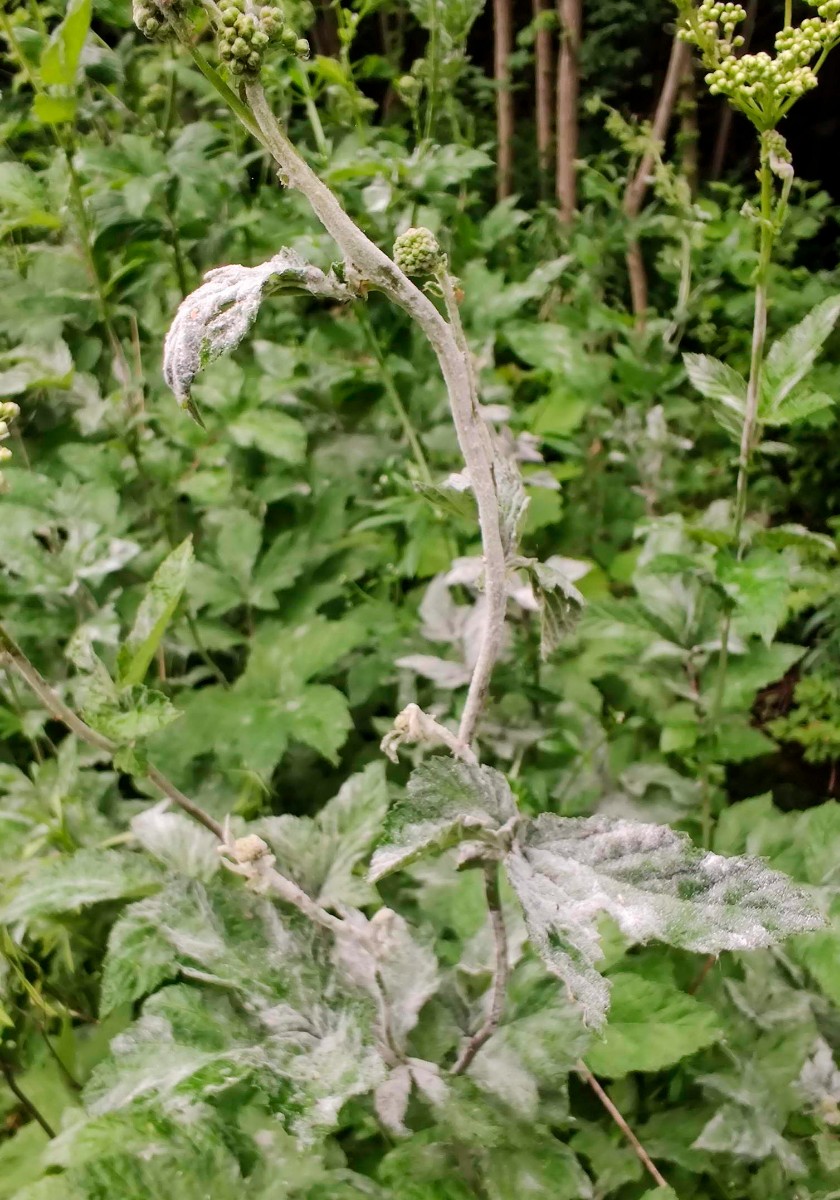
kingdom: Fungi
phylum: Ascomycota
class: Leotiomycetes
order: Helotiales
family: Erysiphaceae
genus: Podosphaera
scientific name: Podosphaera filipendulae
